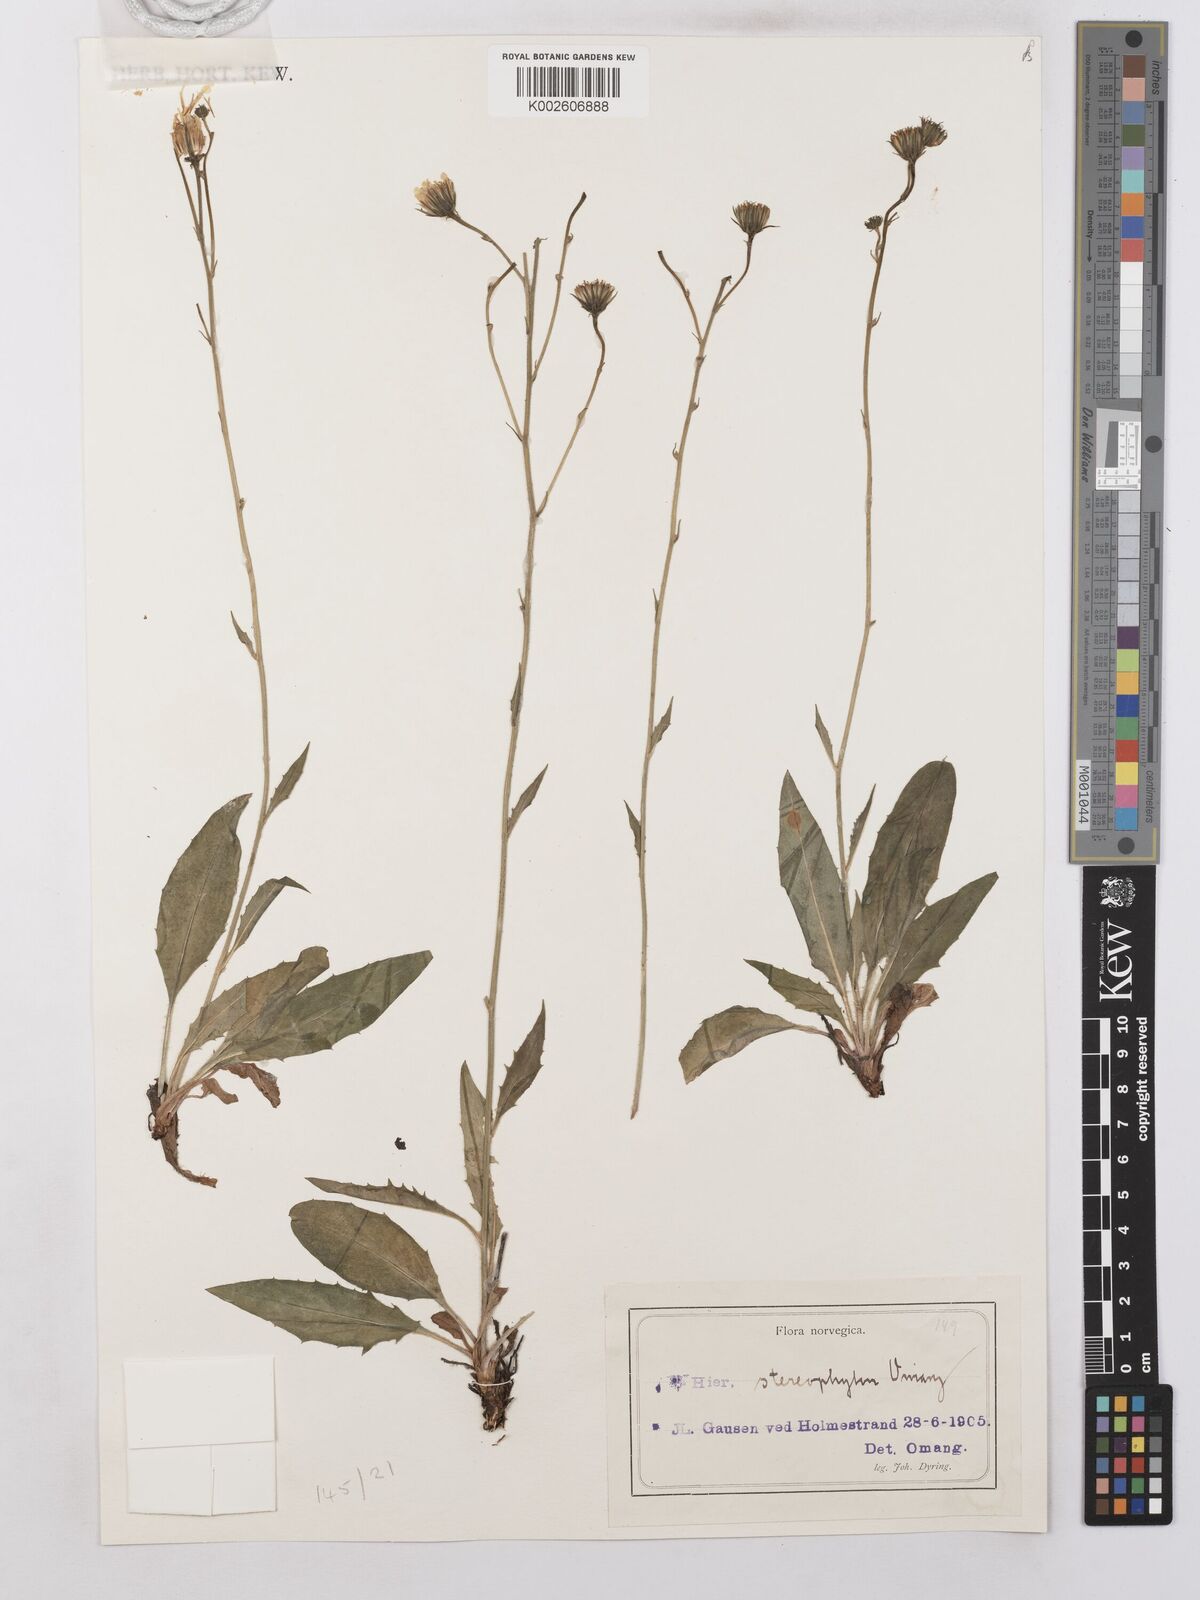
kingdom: Plantae
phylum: Tracheophyta
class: Magnoliopsida
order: Asterales
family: Asteraceae
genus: Hieracium
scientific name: Hieracium levicaule
